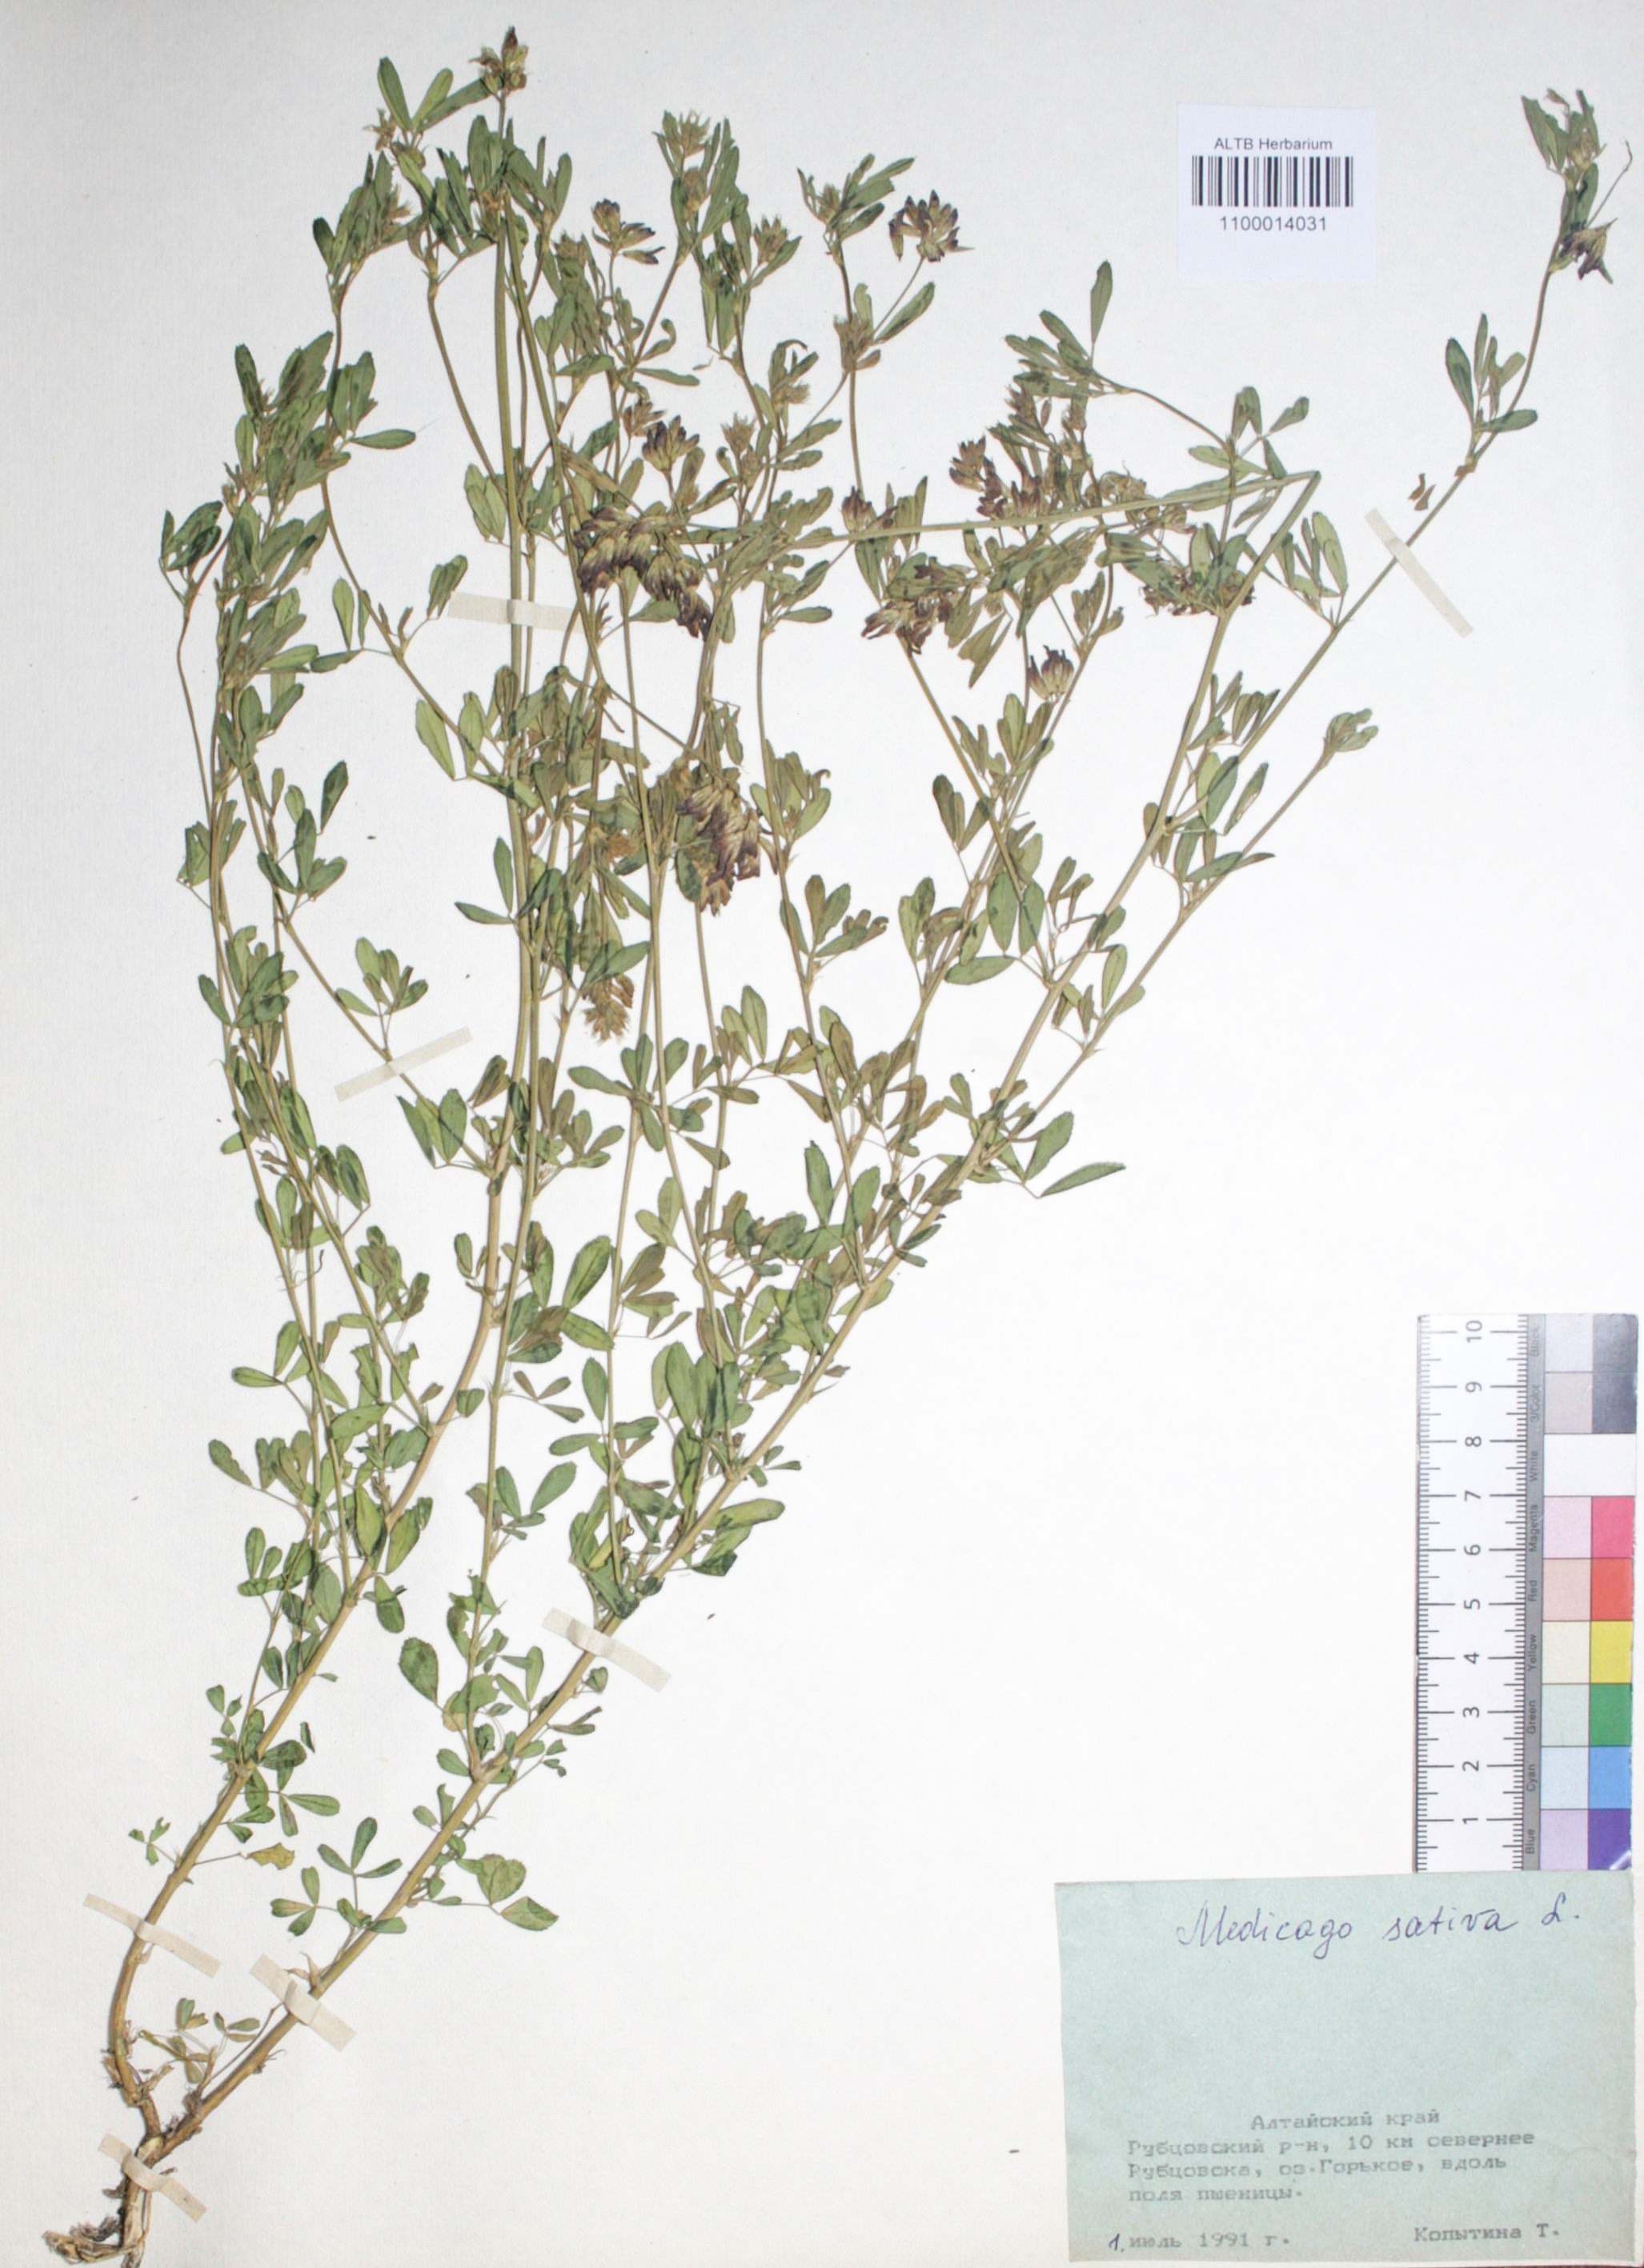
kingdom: Plantae
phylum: Tracheophyta
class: Magnoliopsida
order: Fabales
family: Fabaceae
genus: Medicago
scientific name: Medicago sativa
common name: Alfalfa
